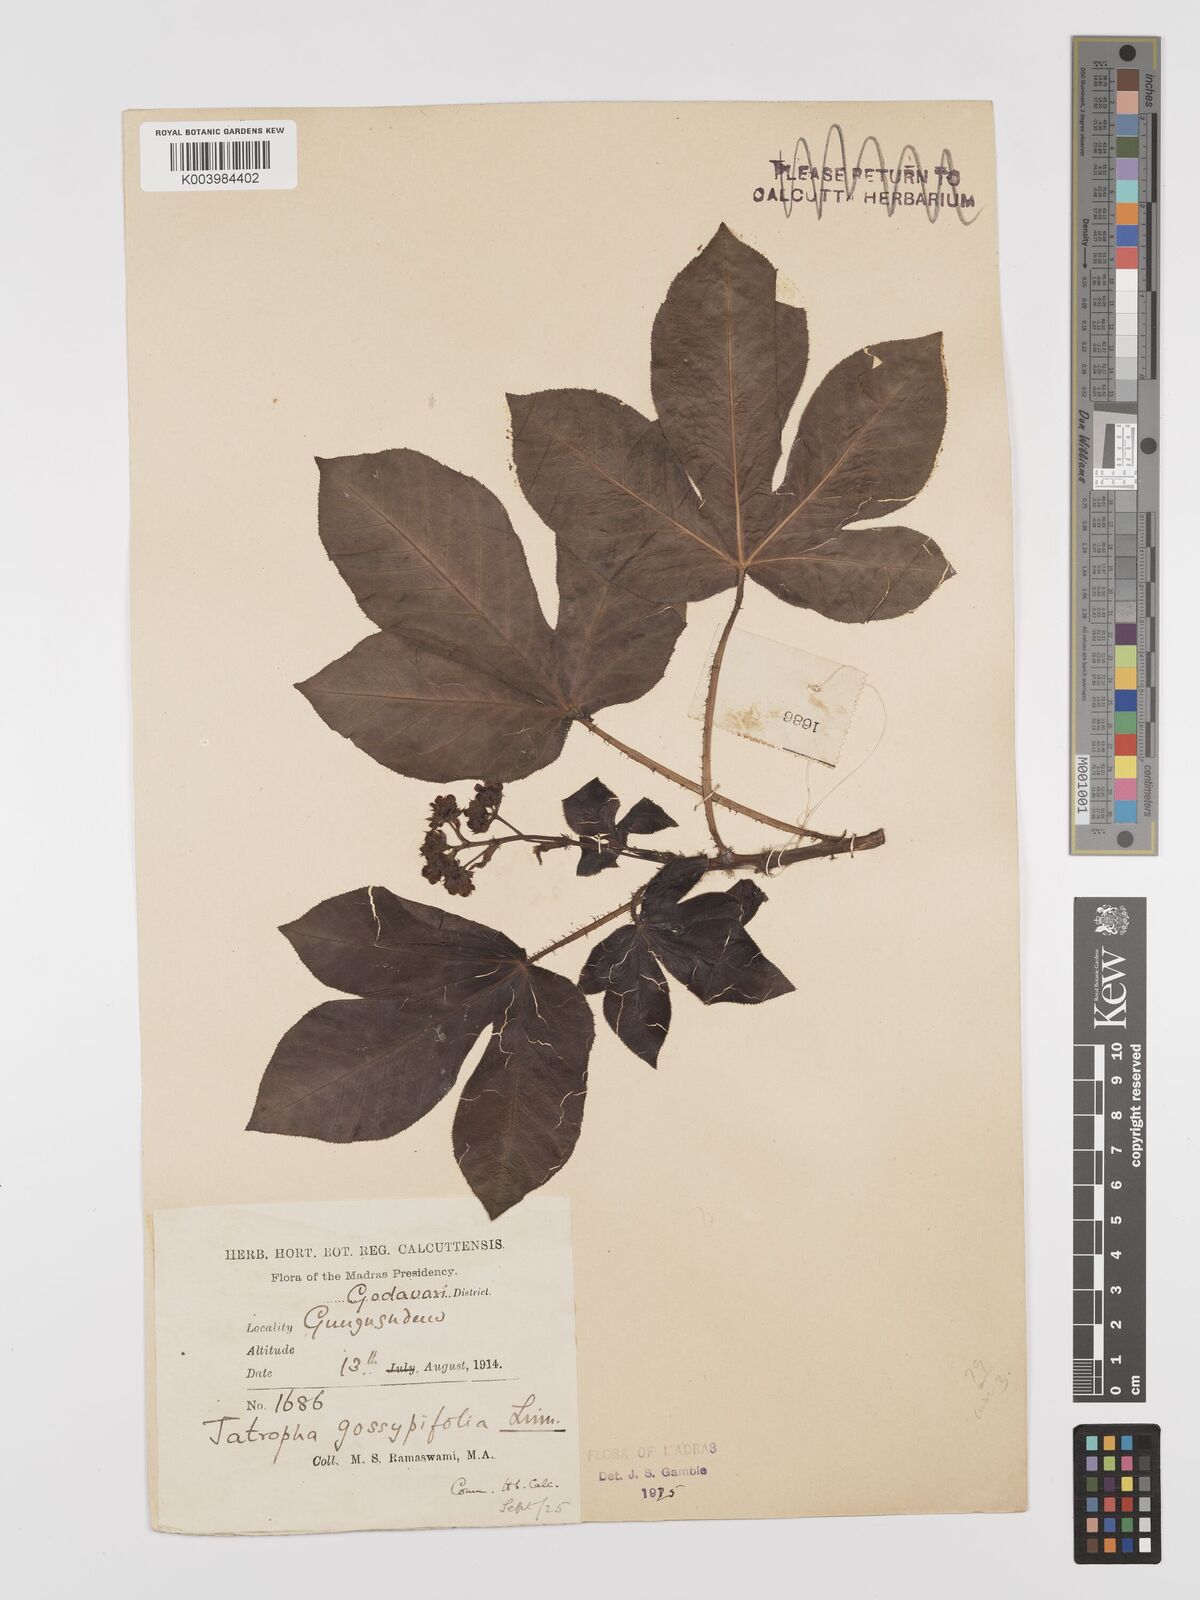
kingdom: Plantae
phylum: Tracheophyta
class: Magnoliopsida
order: Malpighiales
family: Euphorbiaceae
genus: Jatropha
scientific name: Jatropha gossypiifolia
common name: Bellyache bush
